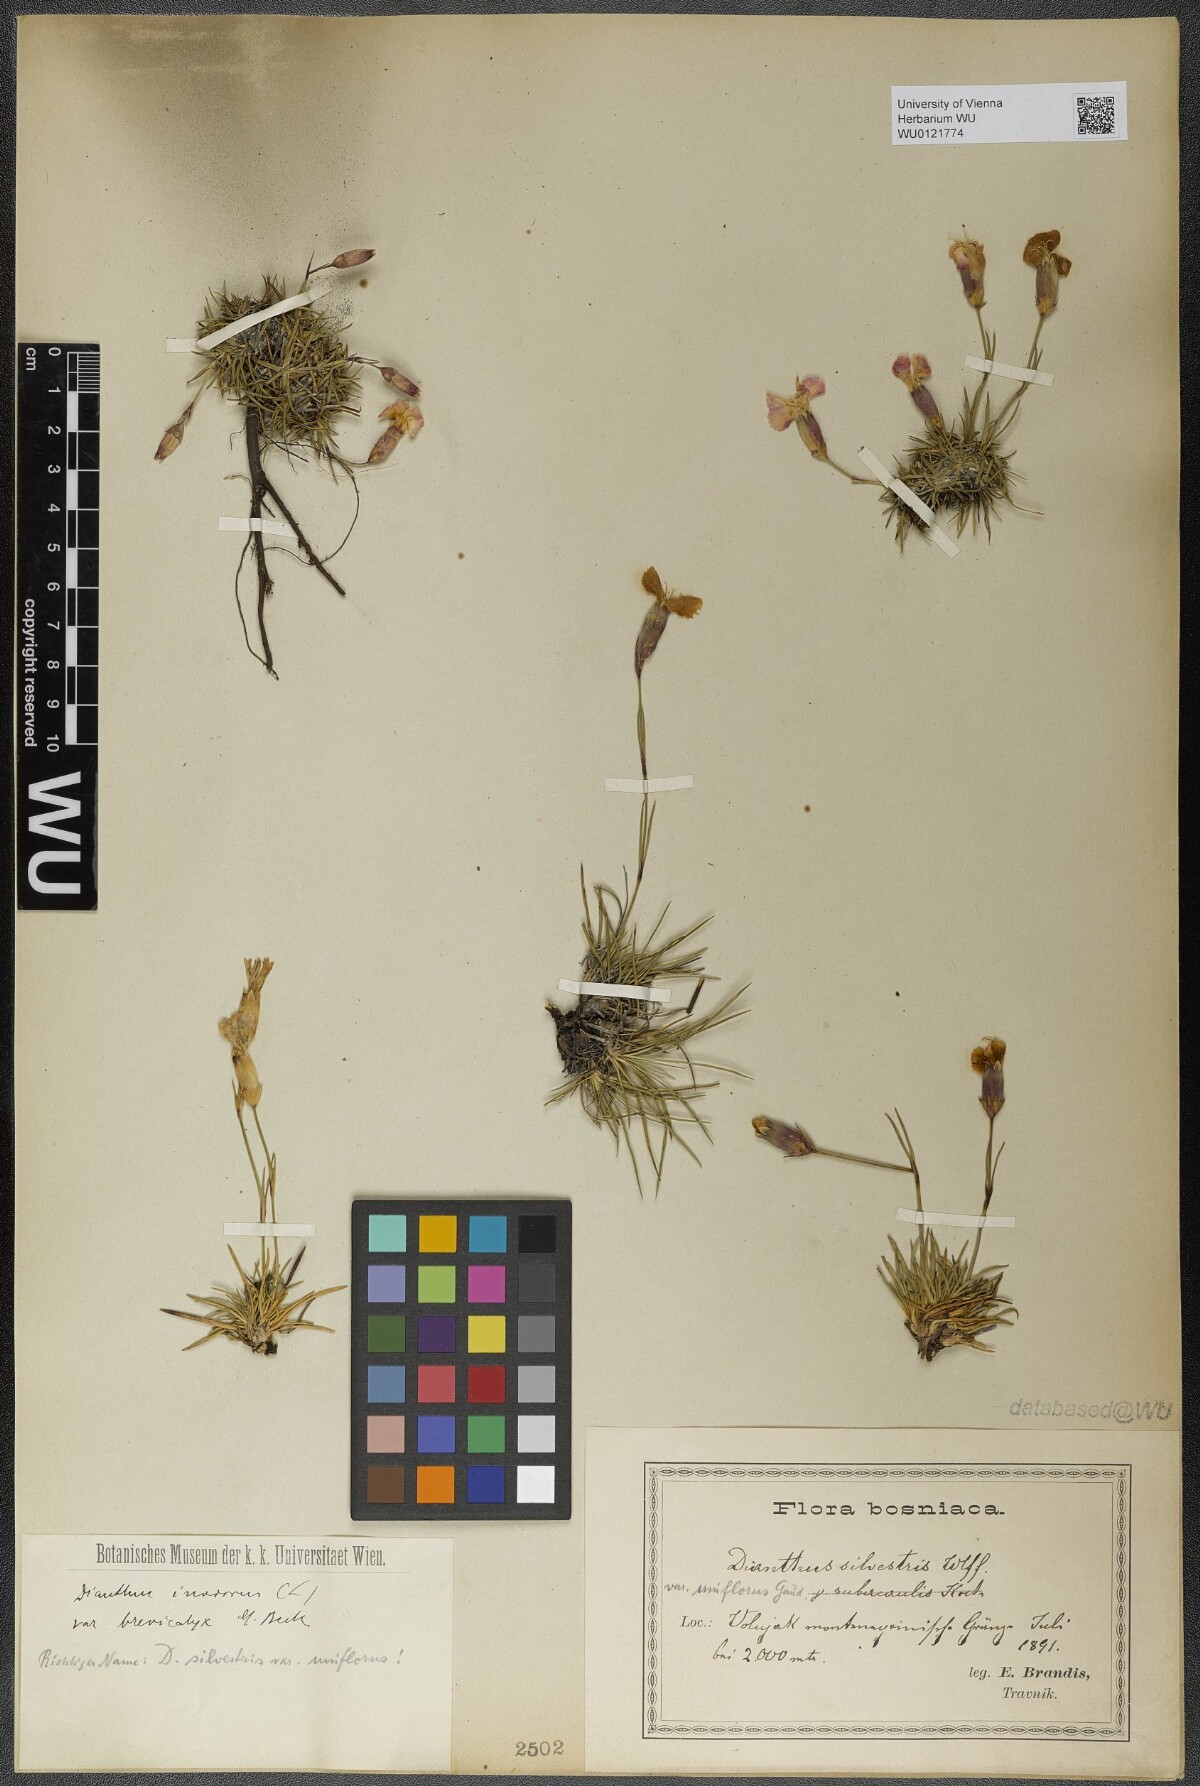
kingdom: Plantae
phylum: Tracheophyta
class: Magnoliopsida
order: Caryophyllales
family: Caryophyllaceae
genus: Dianthus
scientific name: Dianthus sylvestris
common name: Wood pink
